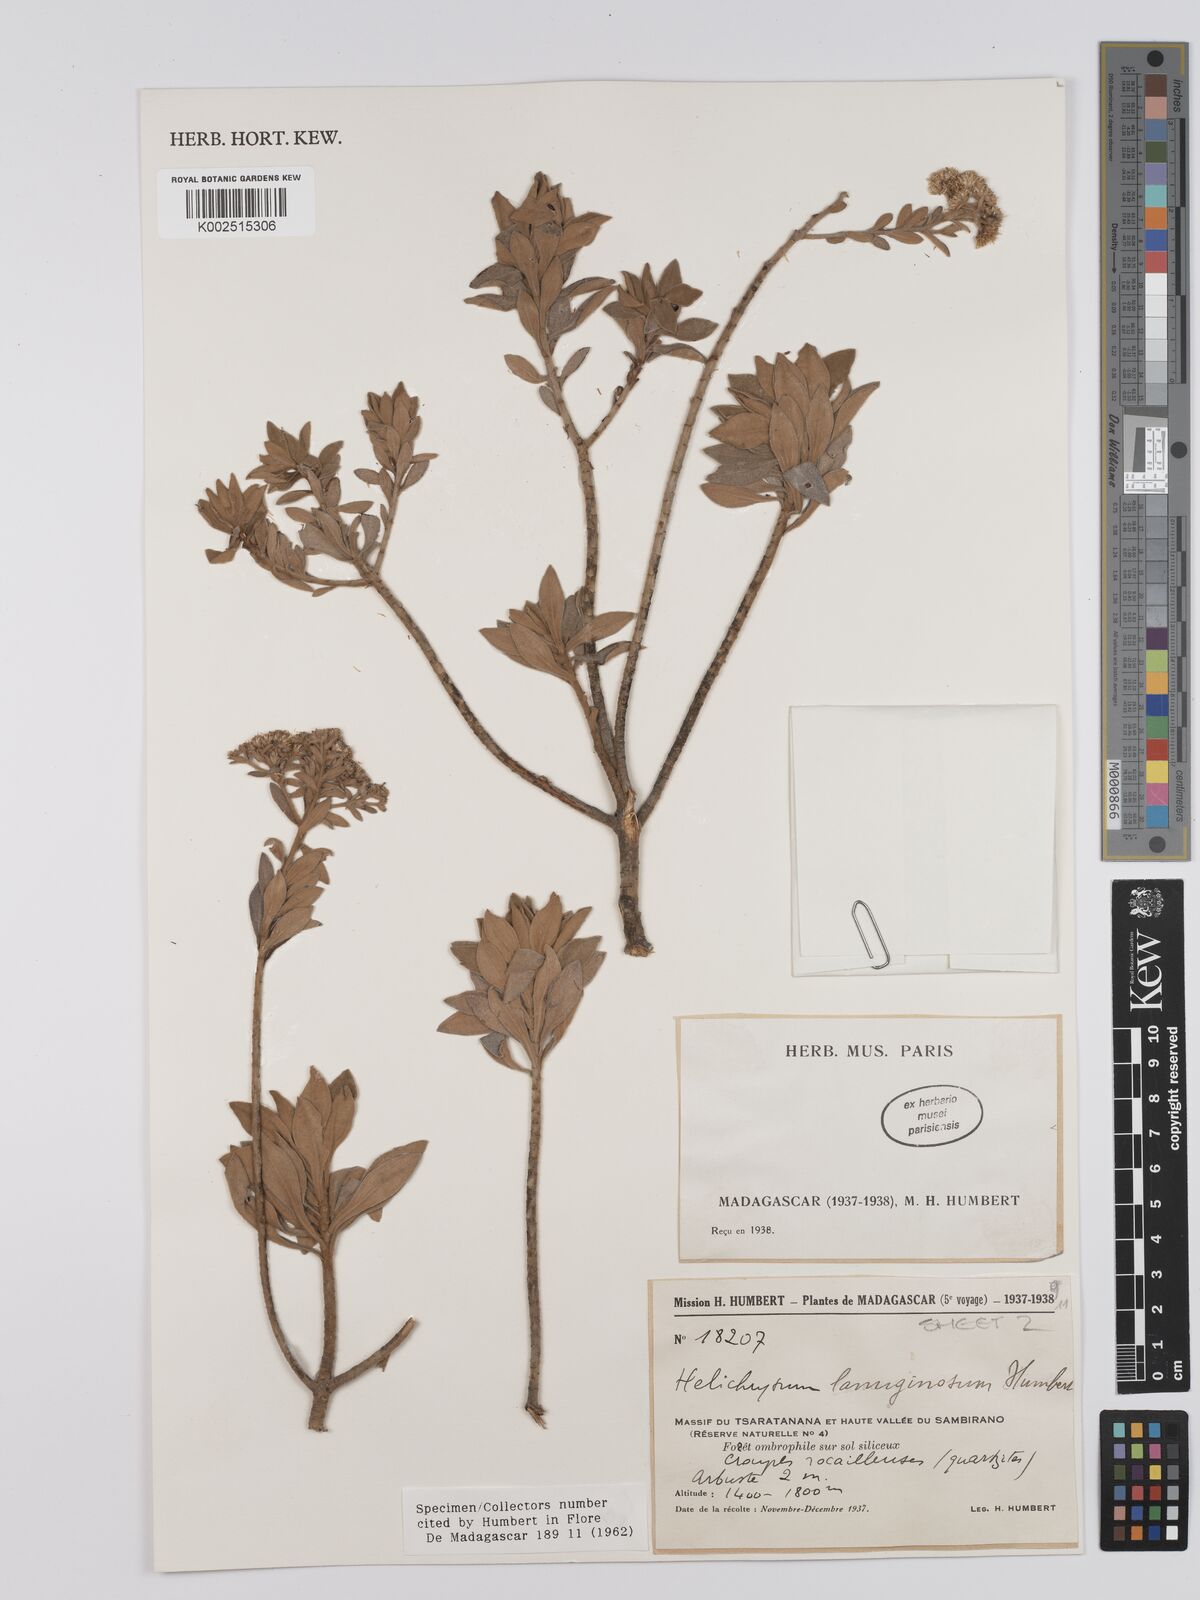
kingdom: Plantae
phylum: Tracheophyta
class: Magnoliopsida
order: Asterales
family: Asteraceae
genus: Helichrysum
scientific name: Helichrysum lanuginosum
